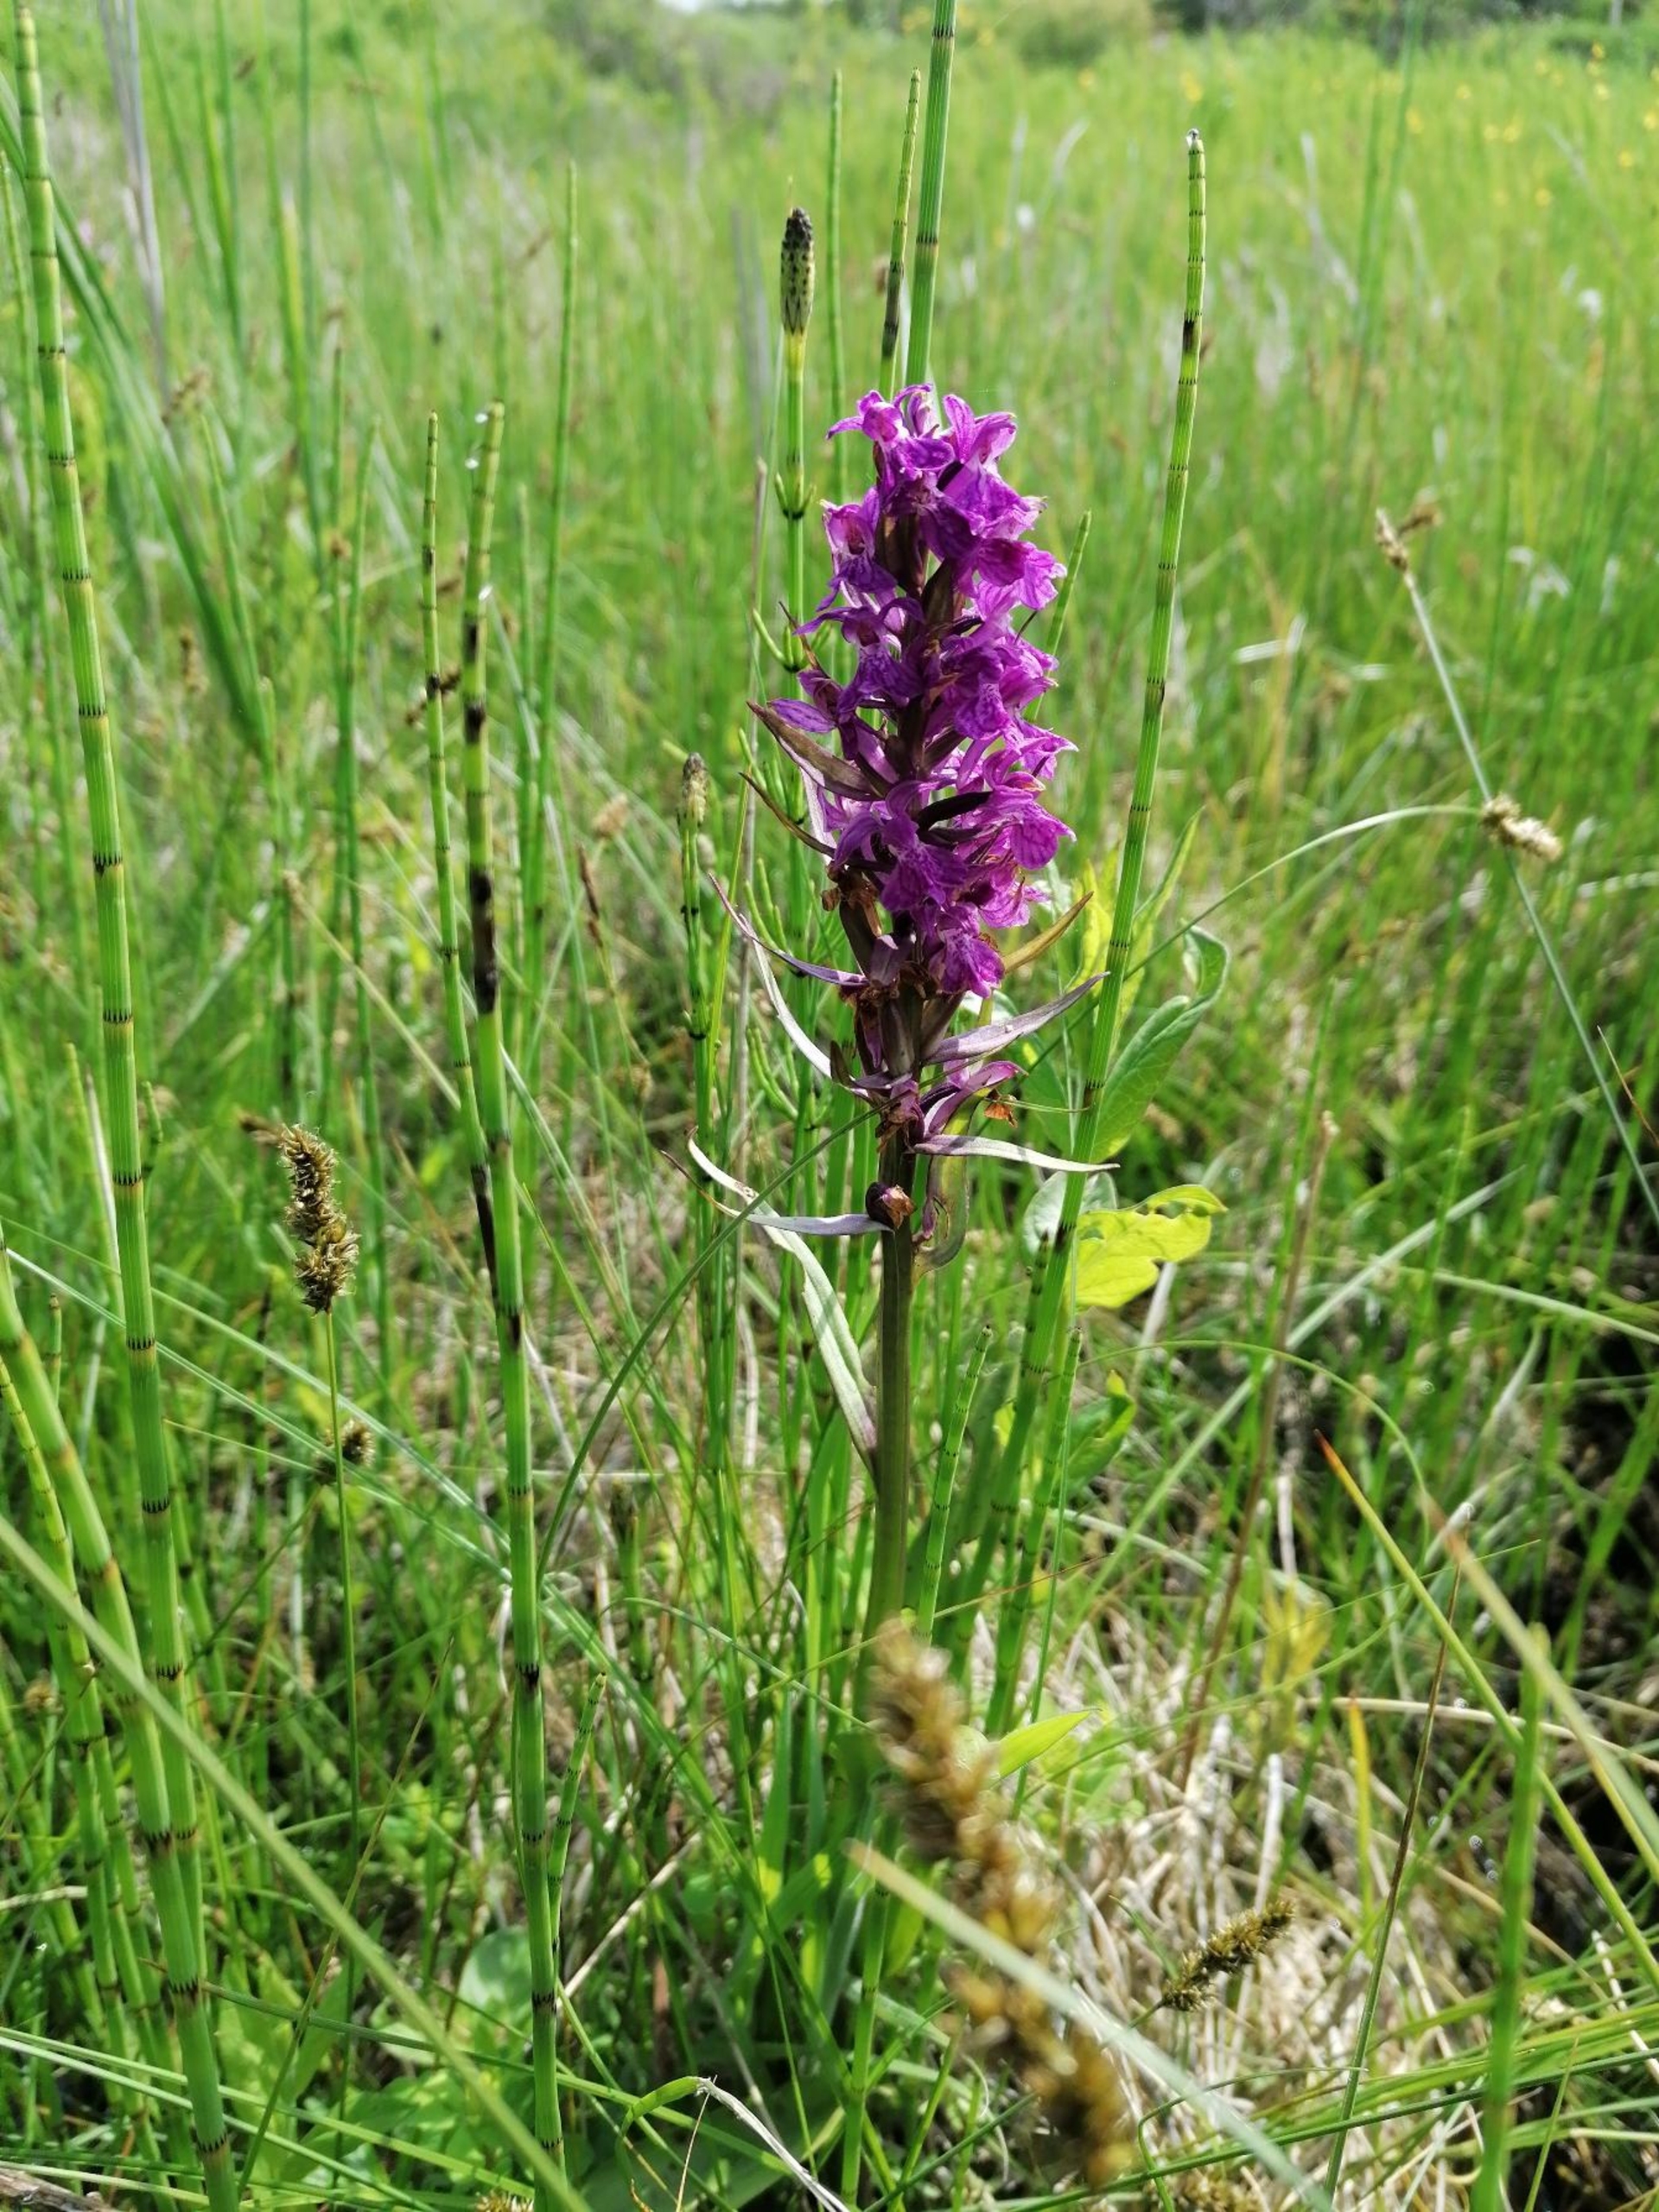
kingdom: Plantae
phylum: Tracheophyta
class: Liliopsida
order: Asparagales
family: Orchidaceae
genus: Dactylorhiza
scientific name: Dactylorhiza majalis
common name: Maj-gøgeurt
